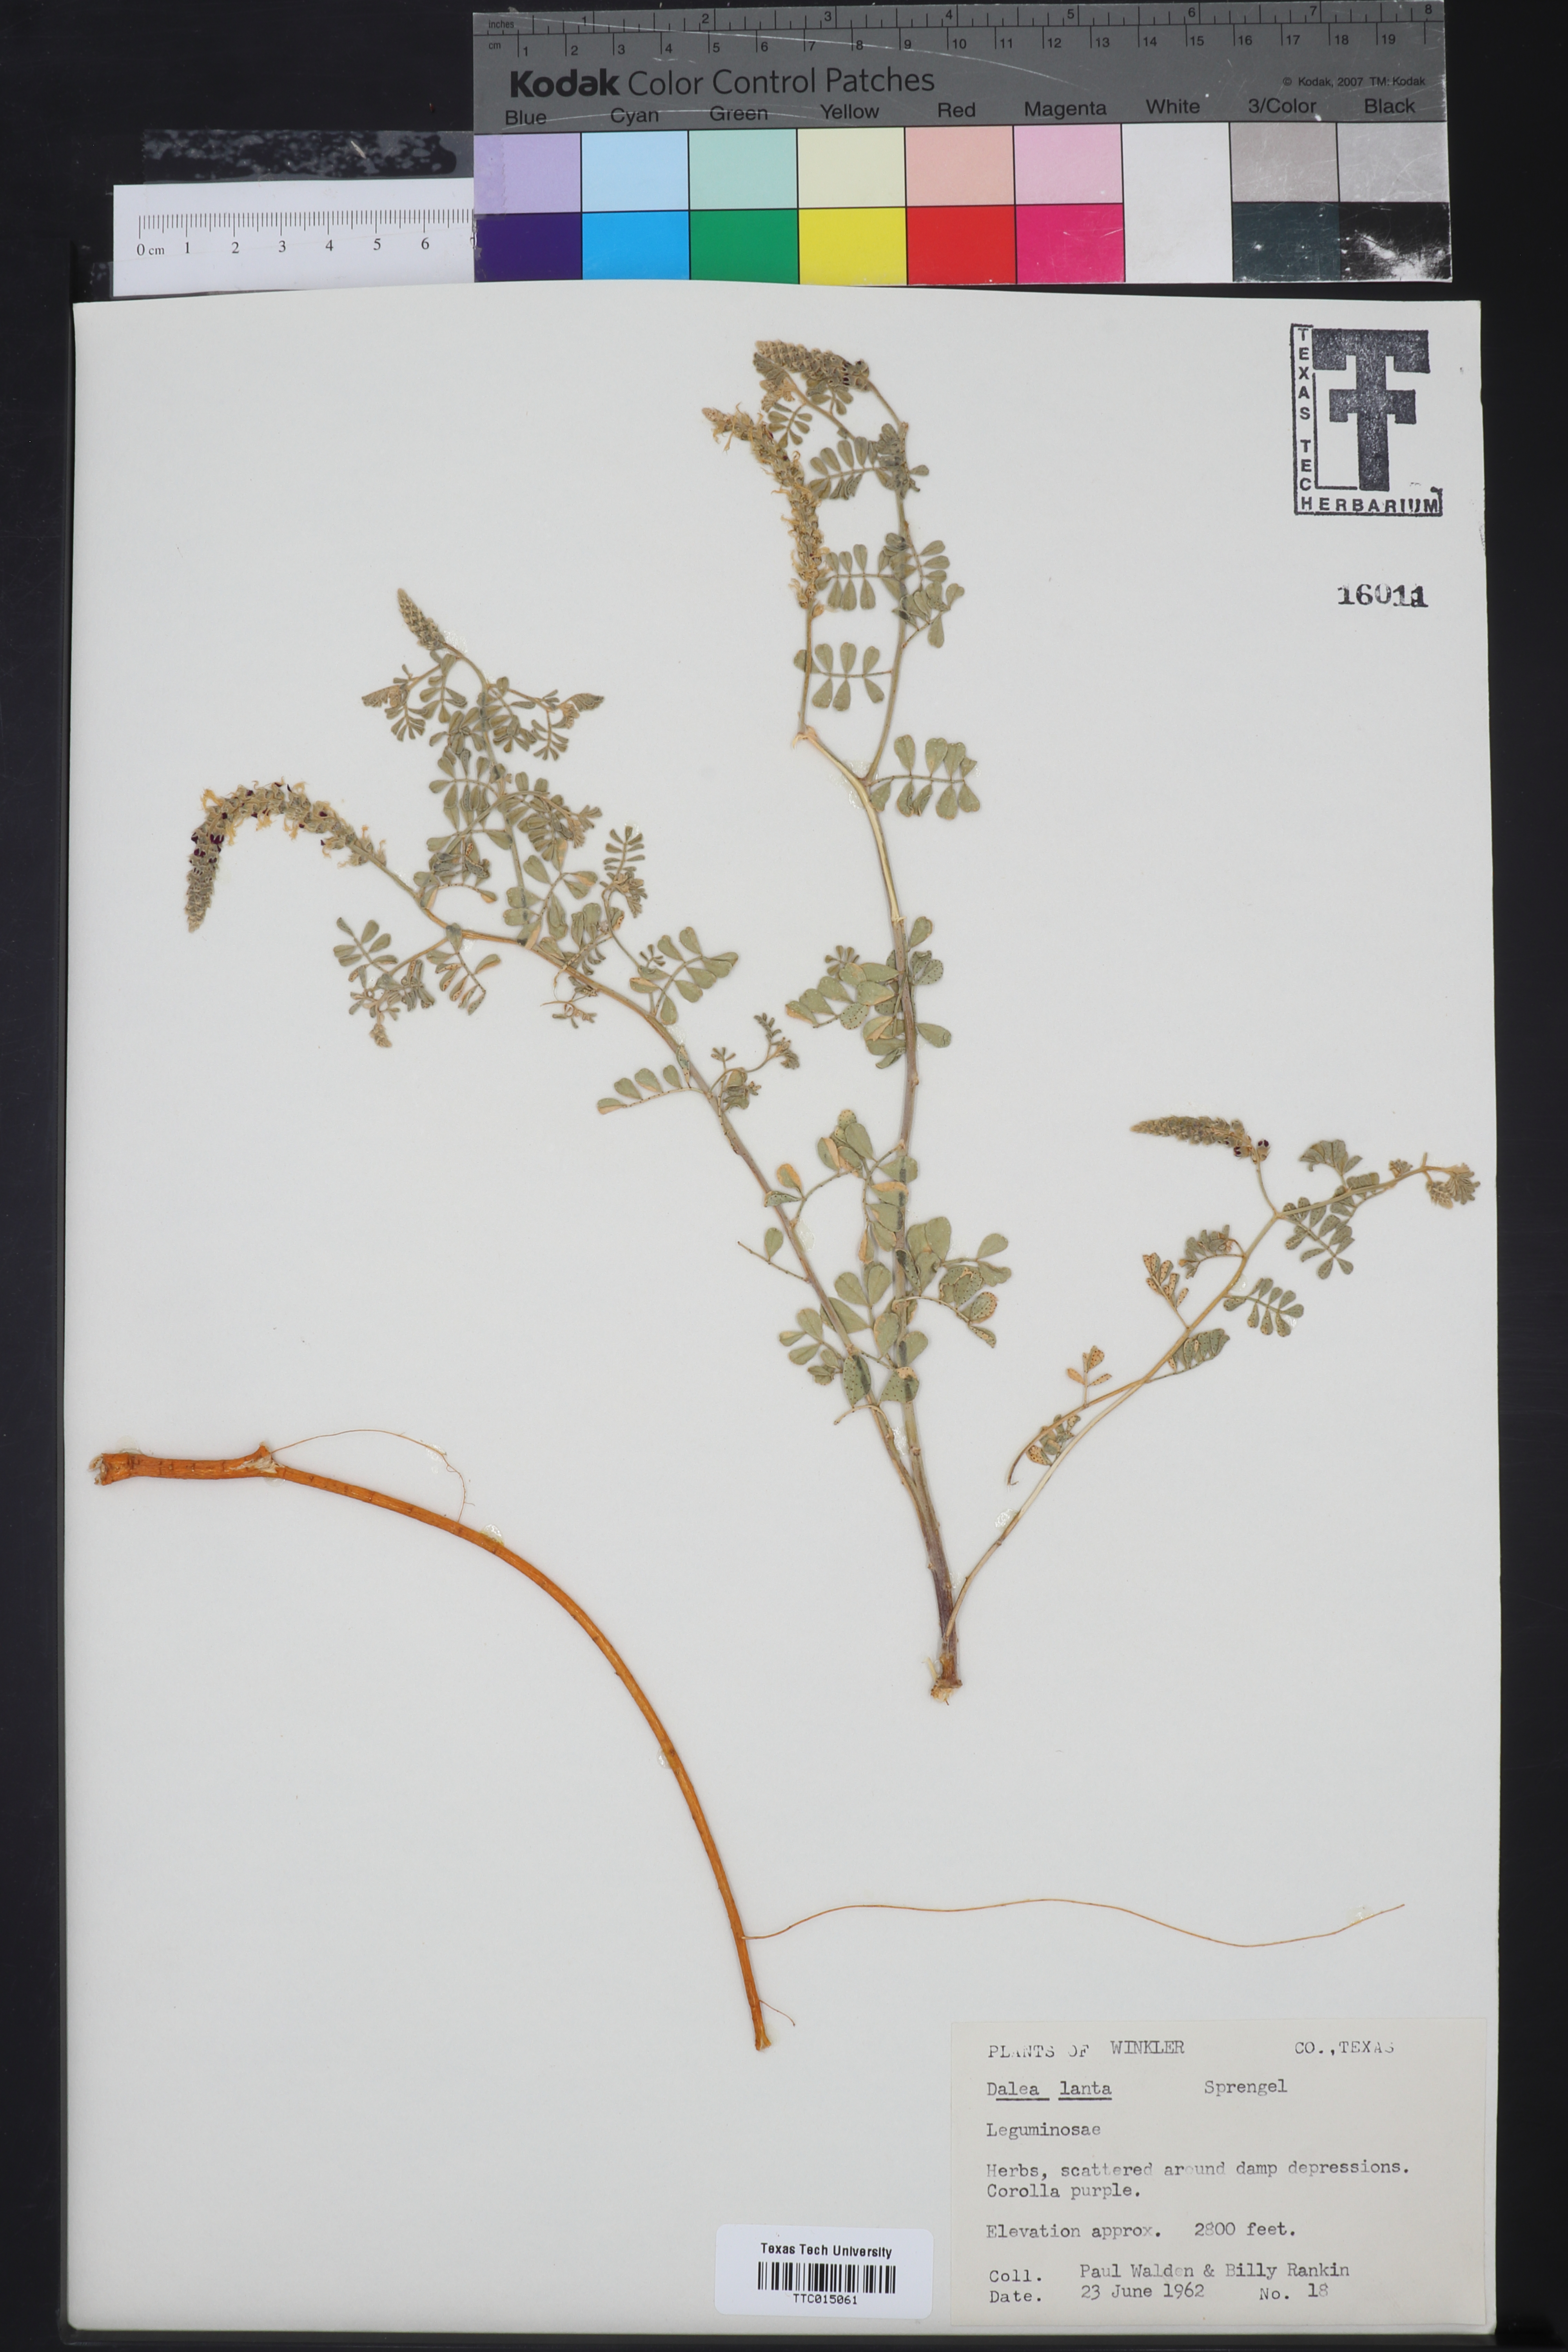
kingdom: Plantae
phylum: Tracheophyta
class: Magnoliopsida
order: Fabales
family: Fabaceae
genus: Dalea
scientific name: Dalea lanata
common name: Woolly dalea
